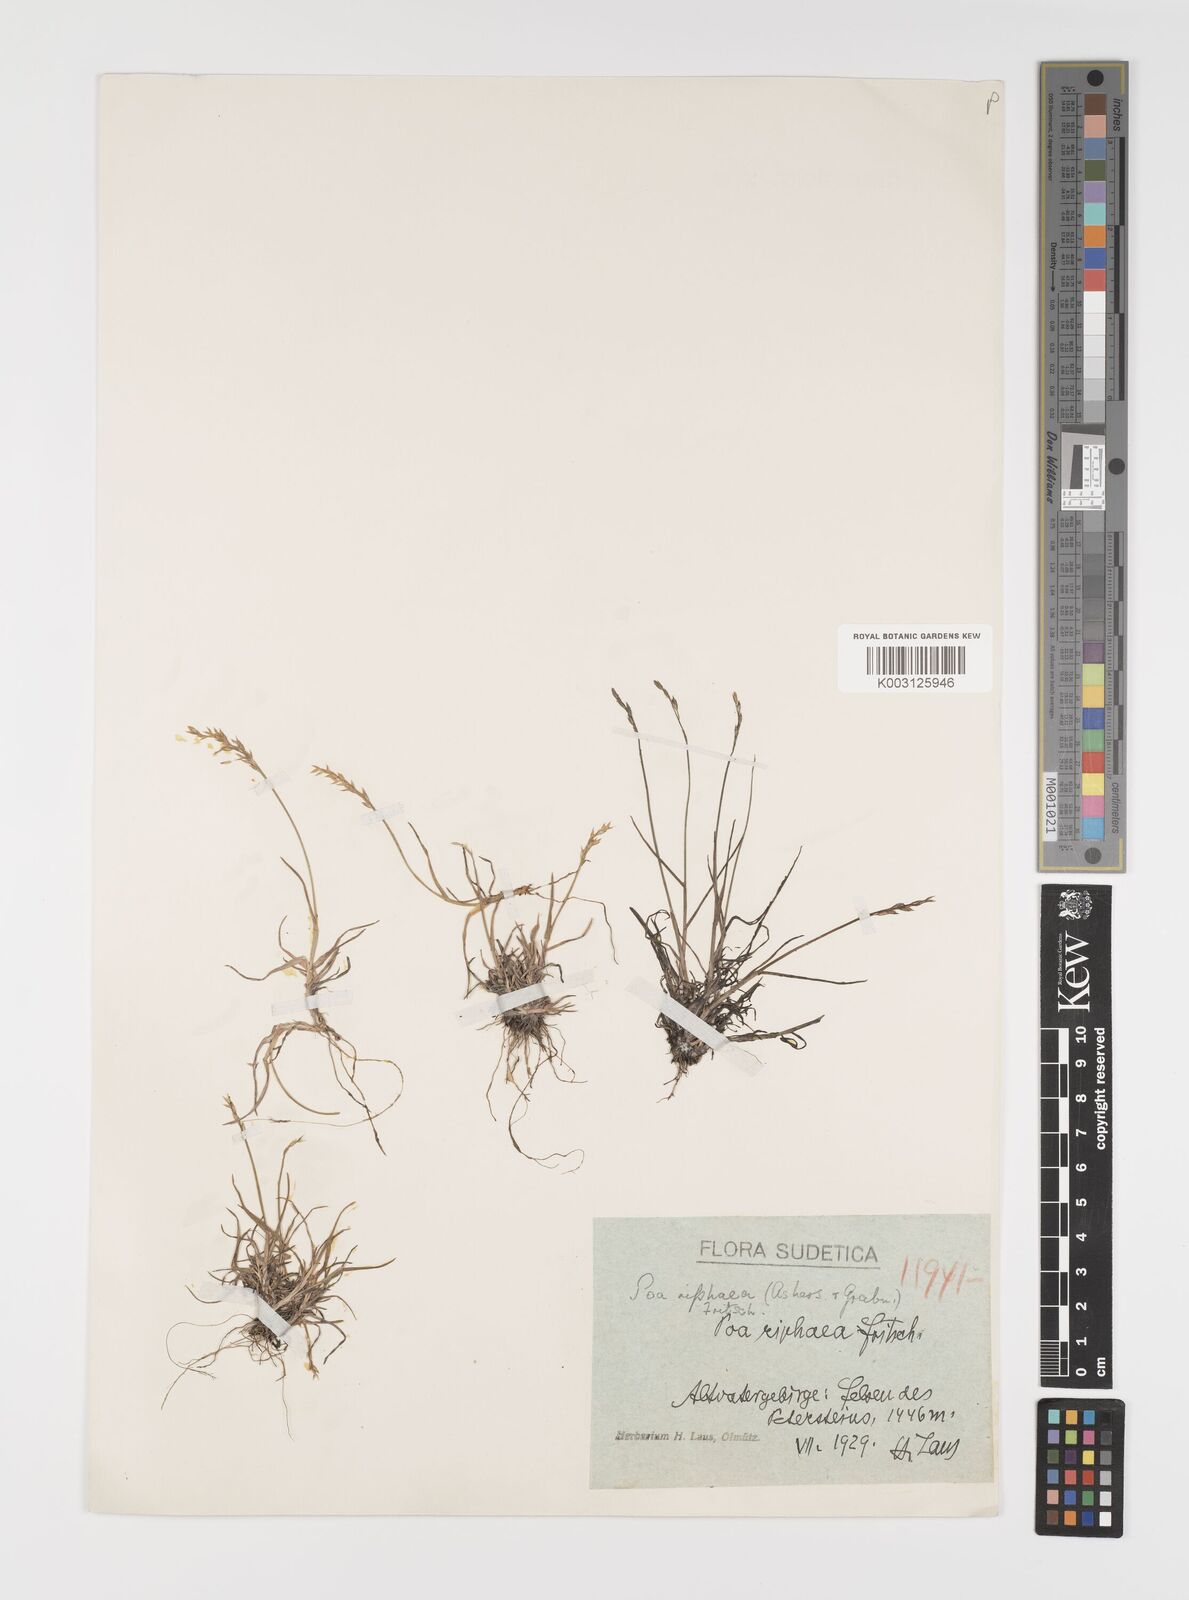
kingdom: Plantae
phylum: Tracheophyta
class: Liliopsida
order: Poales
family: Poaceae
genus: Poa
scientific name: Poa laxa
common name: Lax bluegrass
